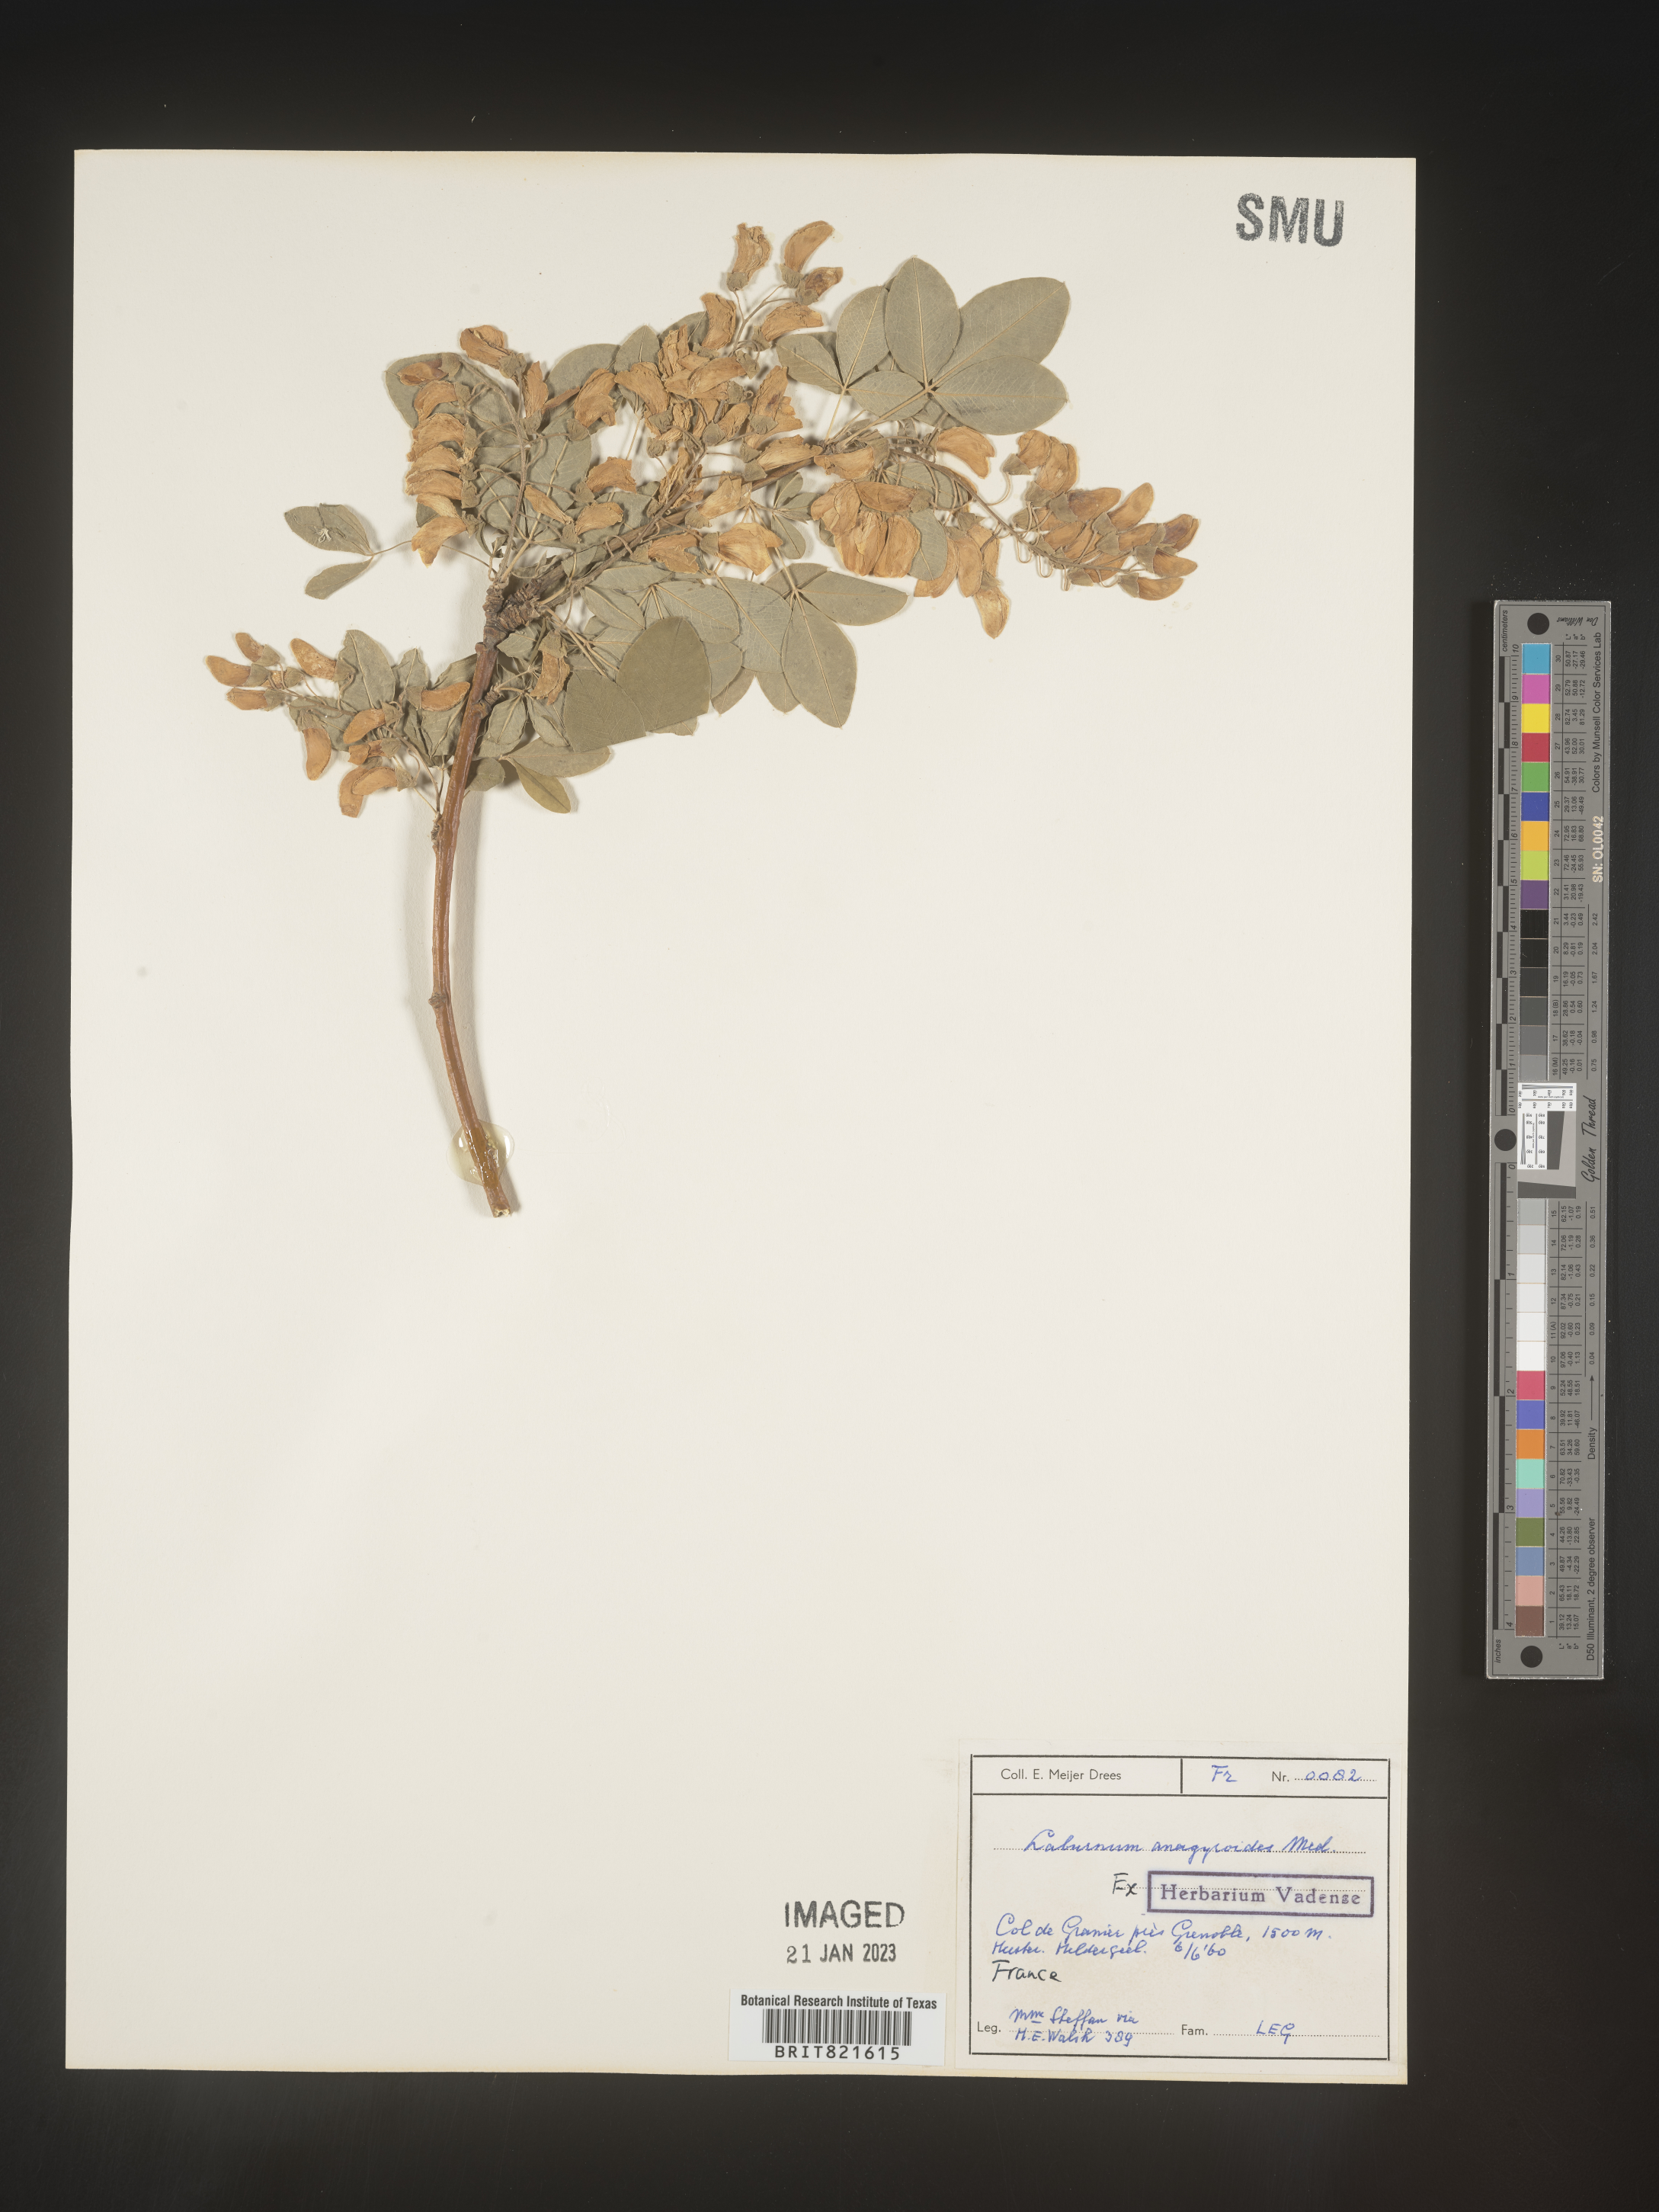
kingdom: Plantae
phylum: Tracheophyta
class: Magnoliopsida
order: Fabales
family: Fabaceae
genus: Laburnum
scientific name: Laburnum
